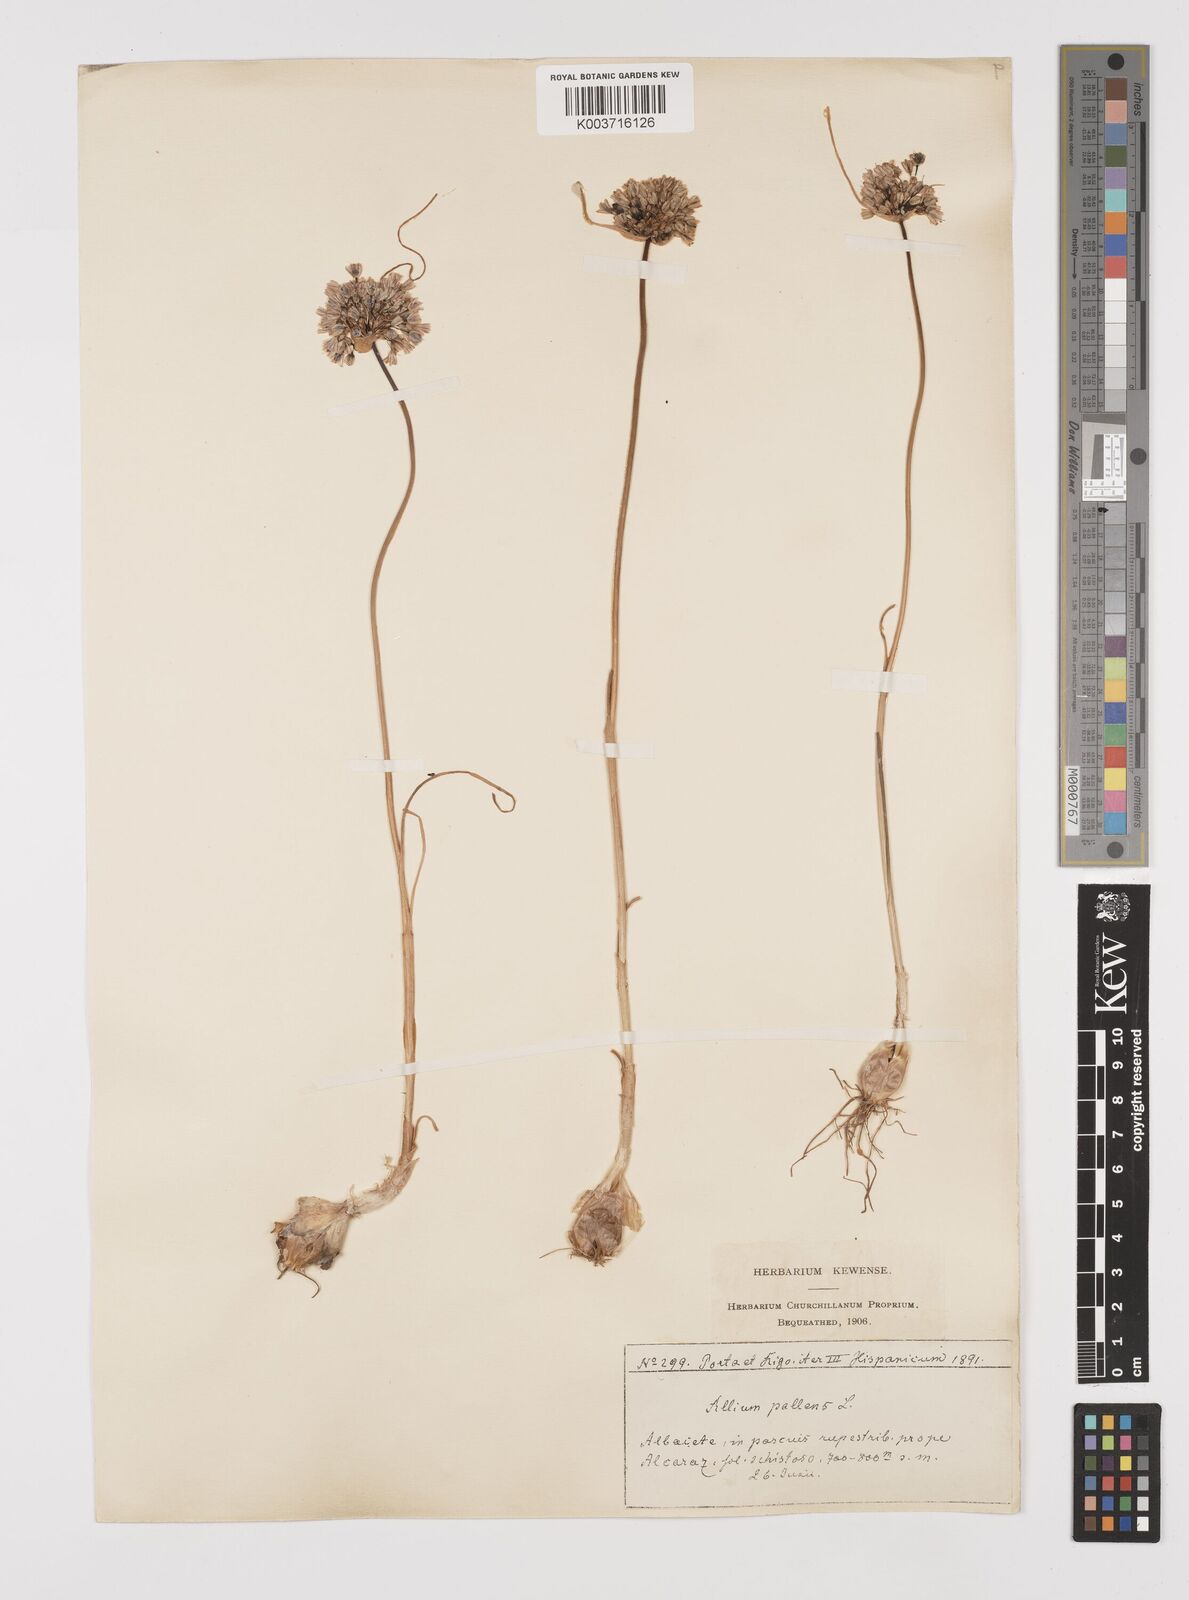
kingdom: Plantae
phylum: Tracheophyta
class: Liliopsida
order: Asparagales
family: Amaryllidaceae
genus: Allium
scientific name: Allium pallens
